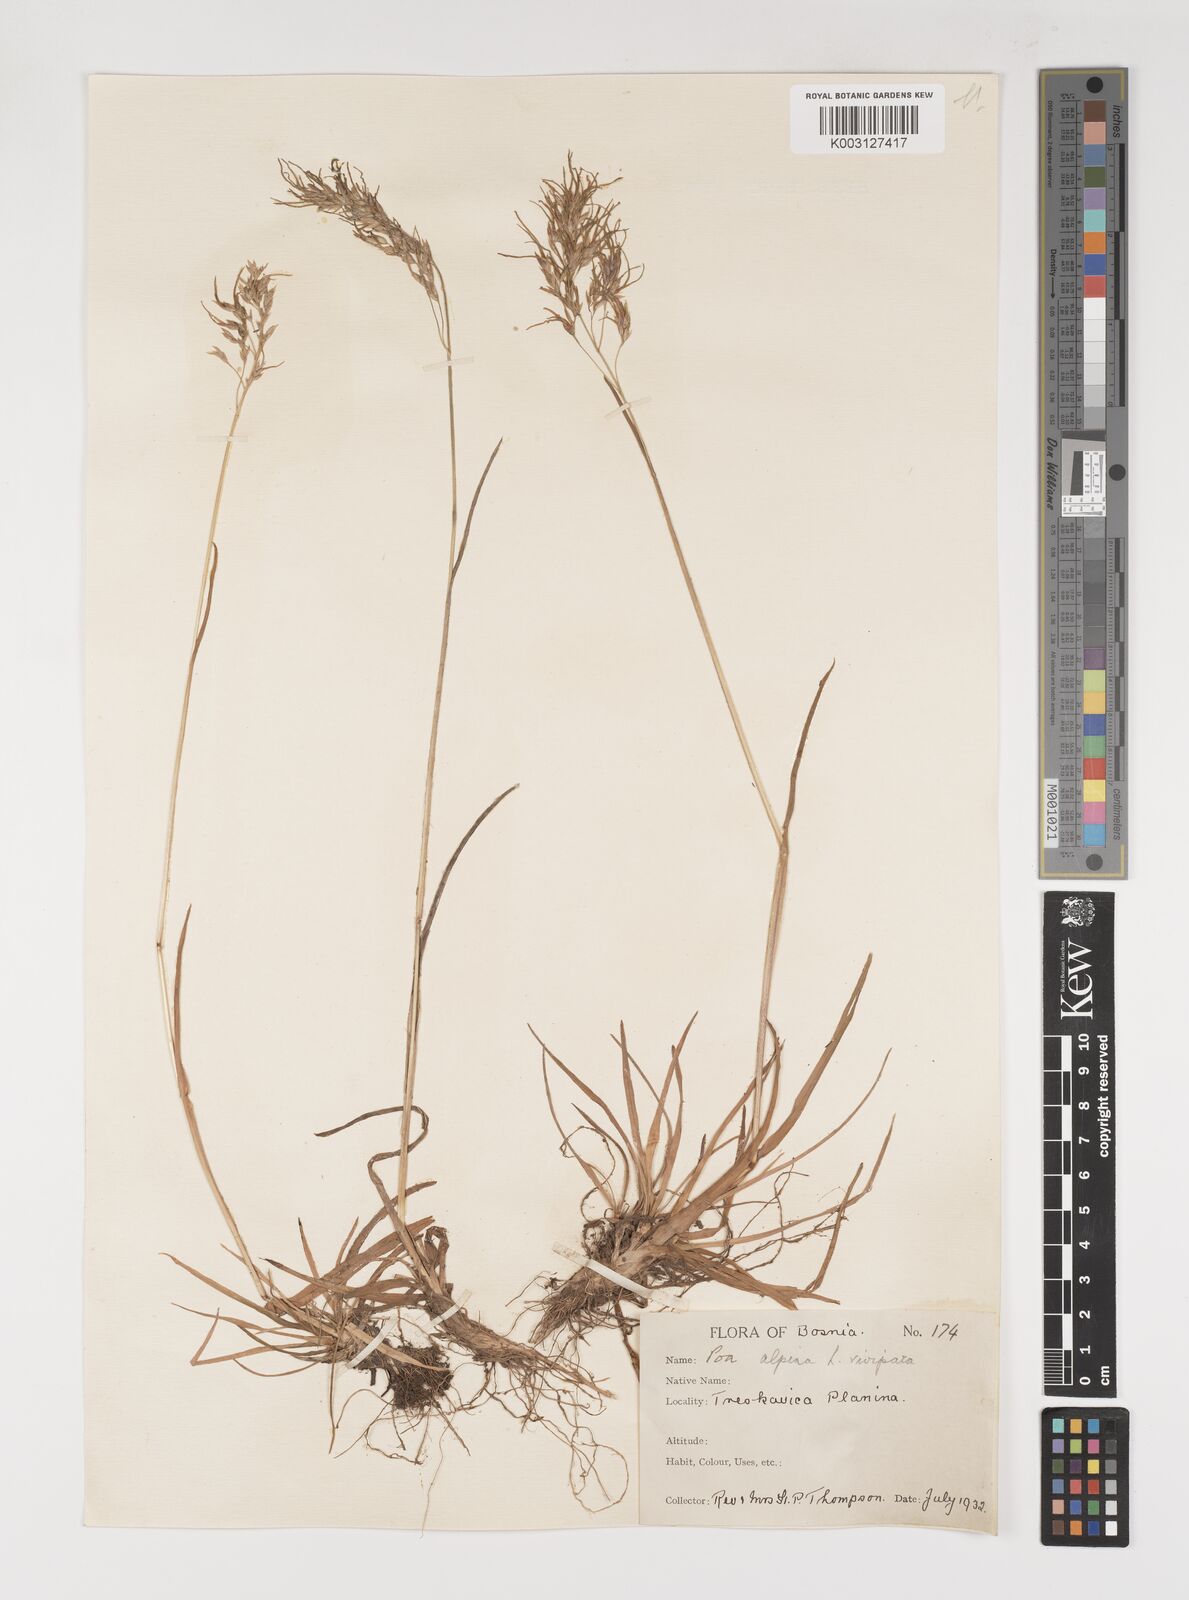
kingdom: Plantae
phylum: Tracheophyta
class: Liliopsida
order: Poales
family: Poaceae
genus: Poa
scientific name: Poa alpina
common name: Alpine bluegrass
